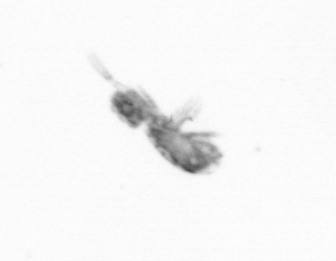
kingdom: Animalia
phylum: Arthropoda
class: Copepoda
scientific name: Copepoda
